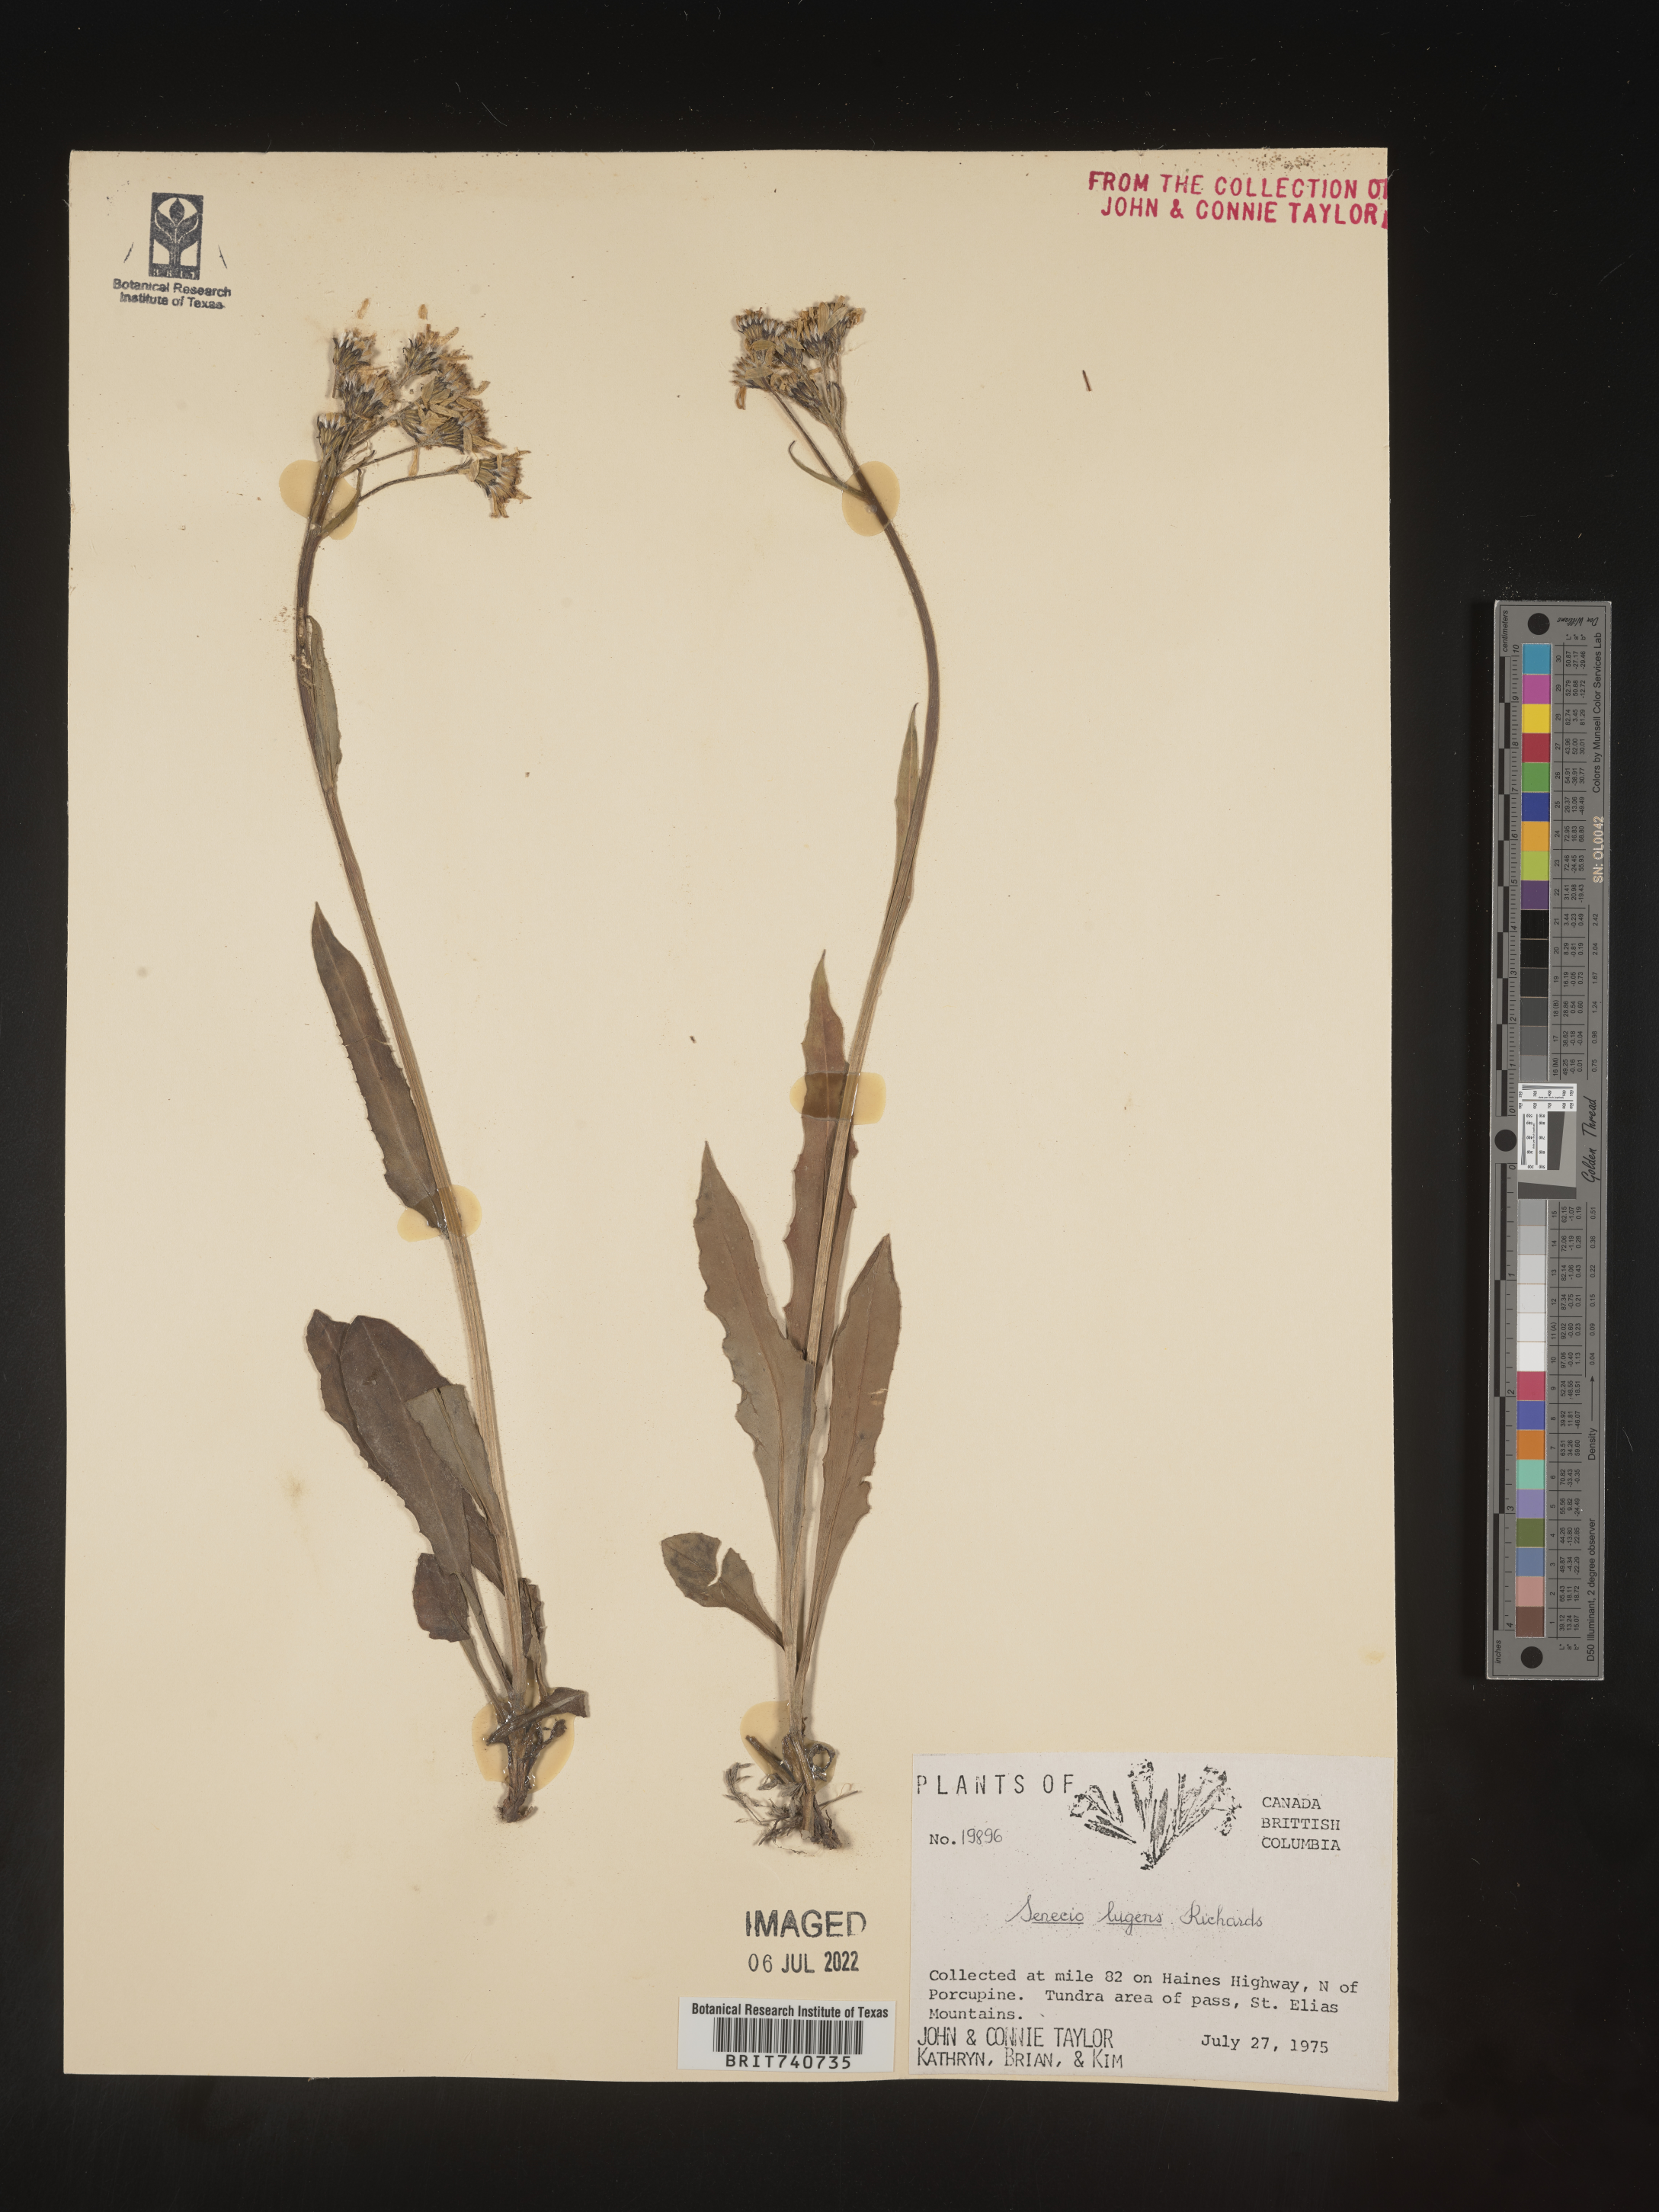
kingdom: Plantae
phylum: Tracheophyta
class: Magnoliopsida
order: Asterales
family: Asteraceae
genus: Senecio
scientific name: Senecio lugens
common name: Black-tip groundsel
